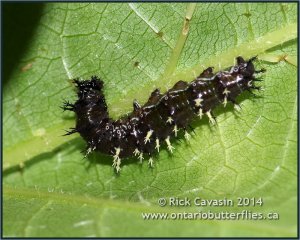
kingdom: Animalia
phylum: Arthropoda
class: Insecta
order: Lepidoptera
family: Nymphalidae
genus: Polygonia
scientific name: Polygonia comma
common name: Eastern Comma
